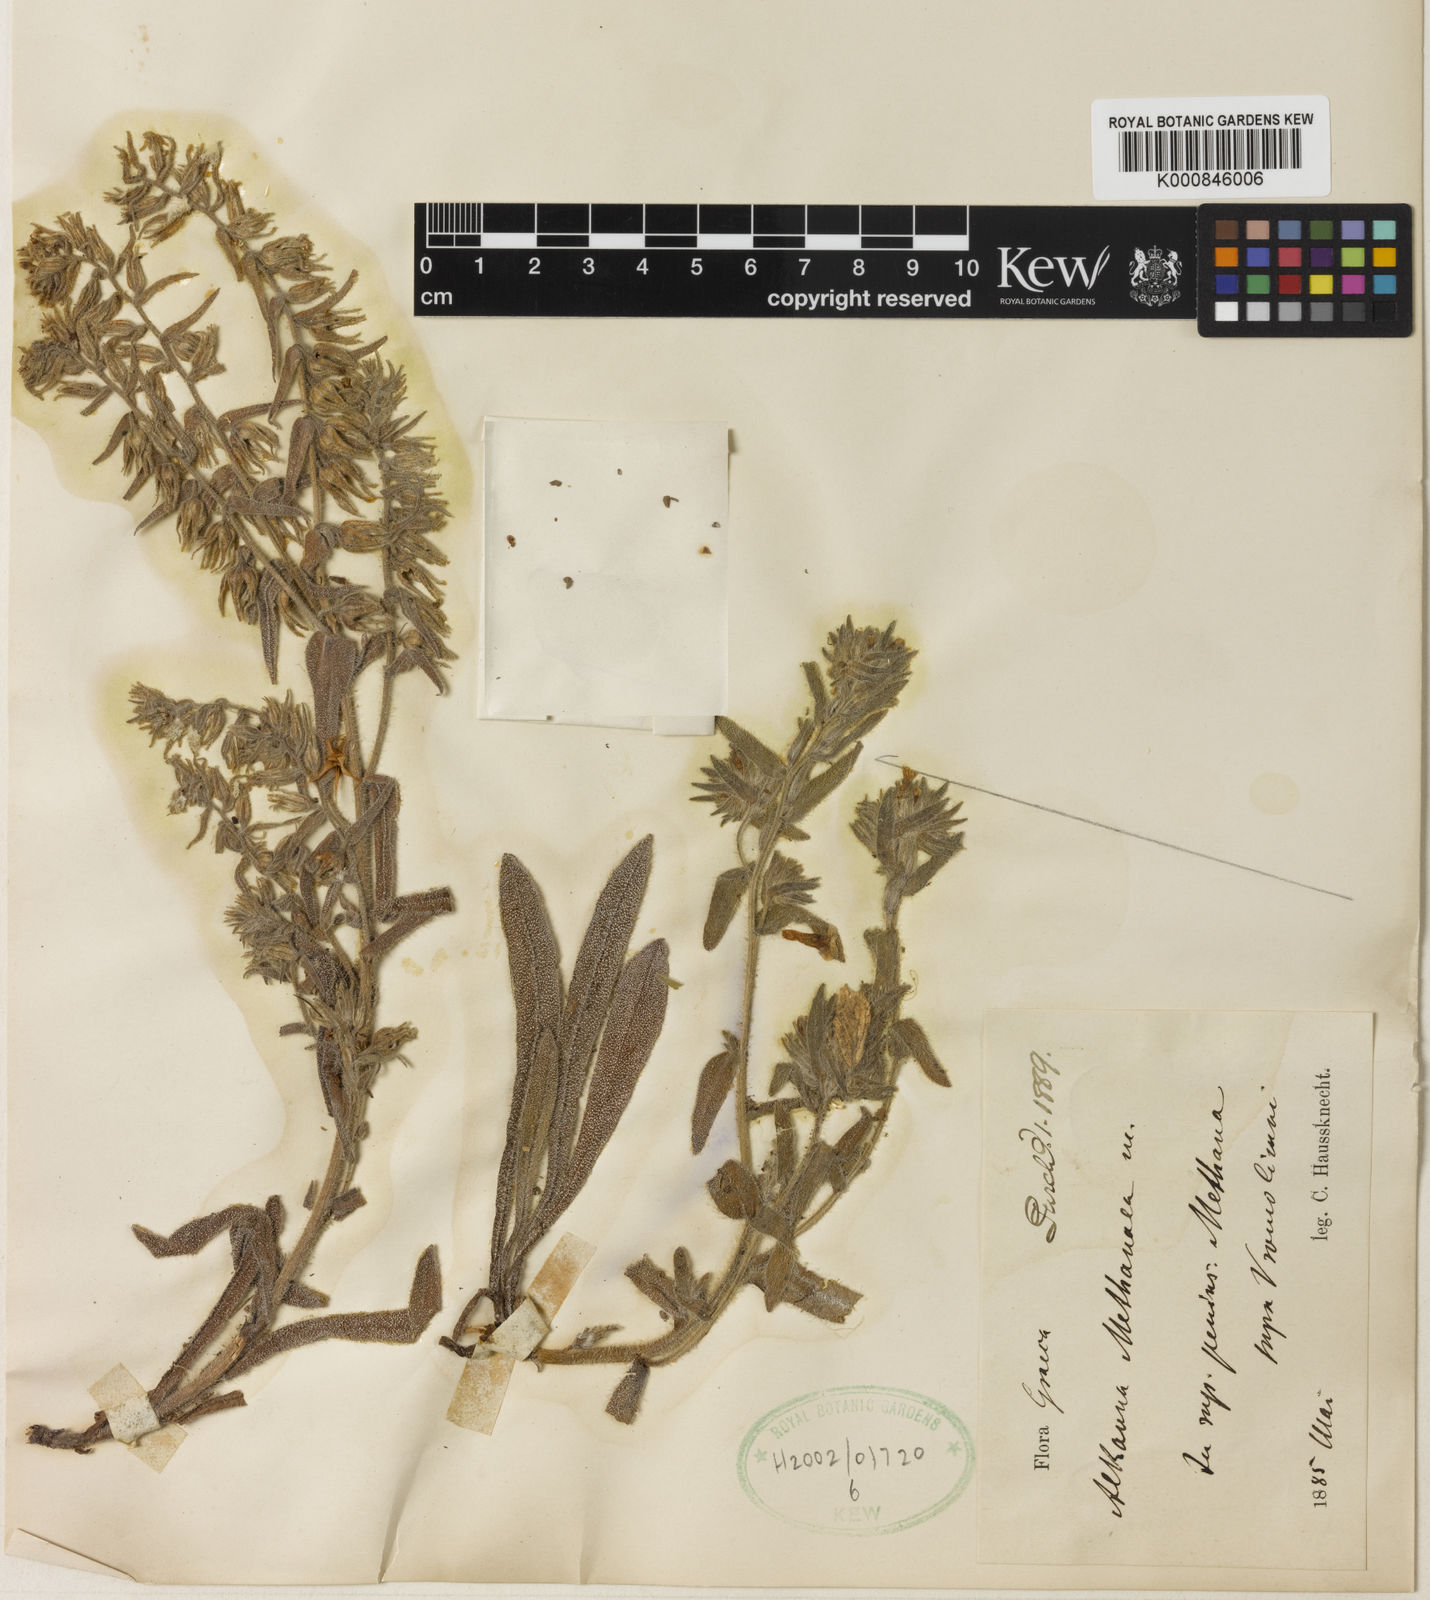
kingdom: Plantae
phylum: Tracheophyta
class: Magnoliopsida
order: Boraginales
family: Boraginaceae
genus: Alkanna
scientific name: Alkanna methanaea
